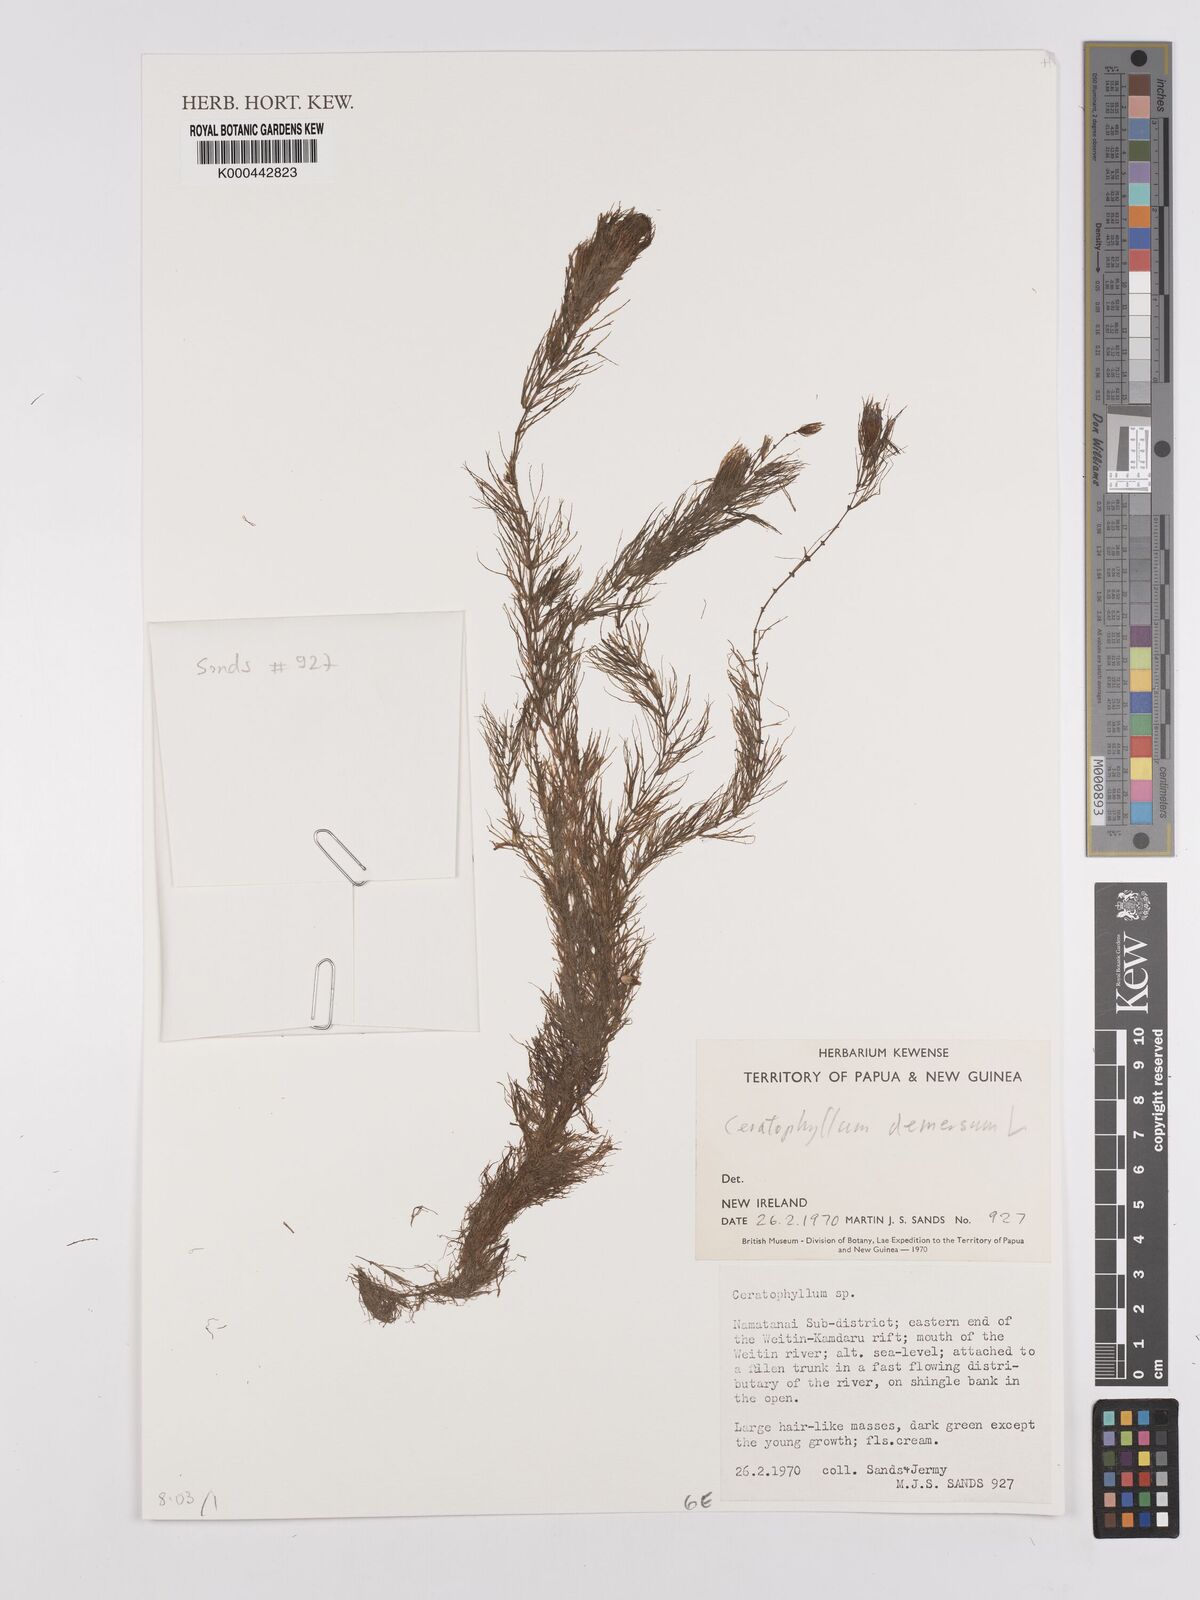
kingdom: Plantae
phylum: Tracheophyta
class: Magnoliopsida
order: Ceratophyllales
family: Ceratophyllaceae
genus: Ceratophyllum
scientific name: Ceratophyllum demersum
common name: Rigid hornwort
